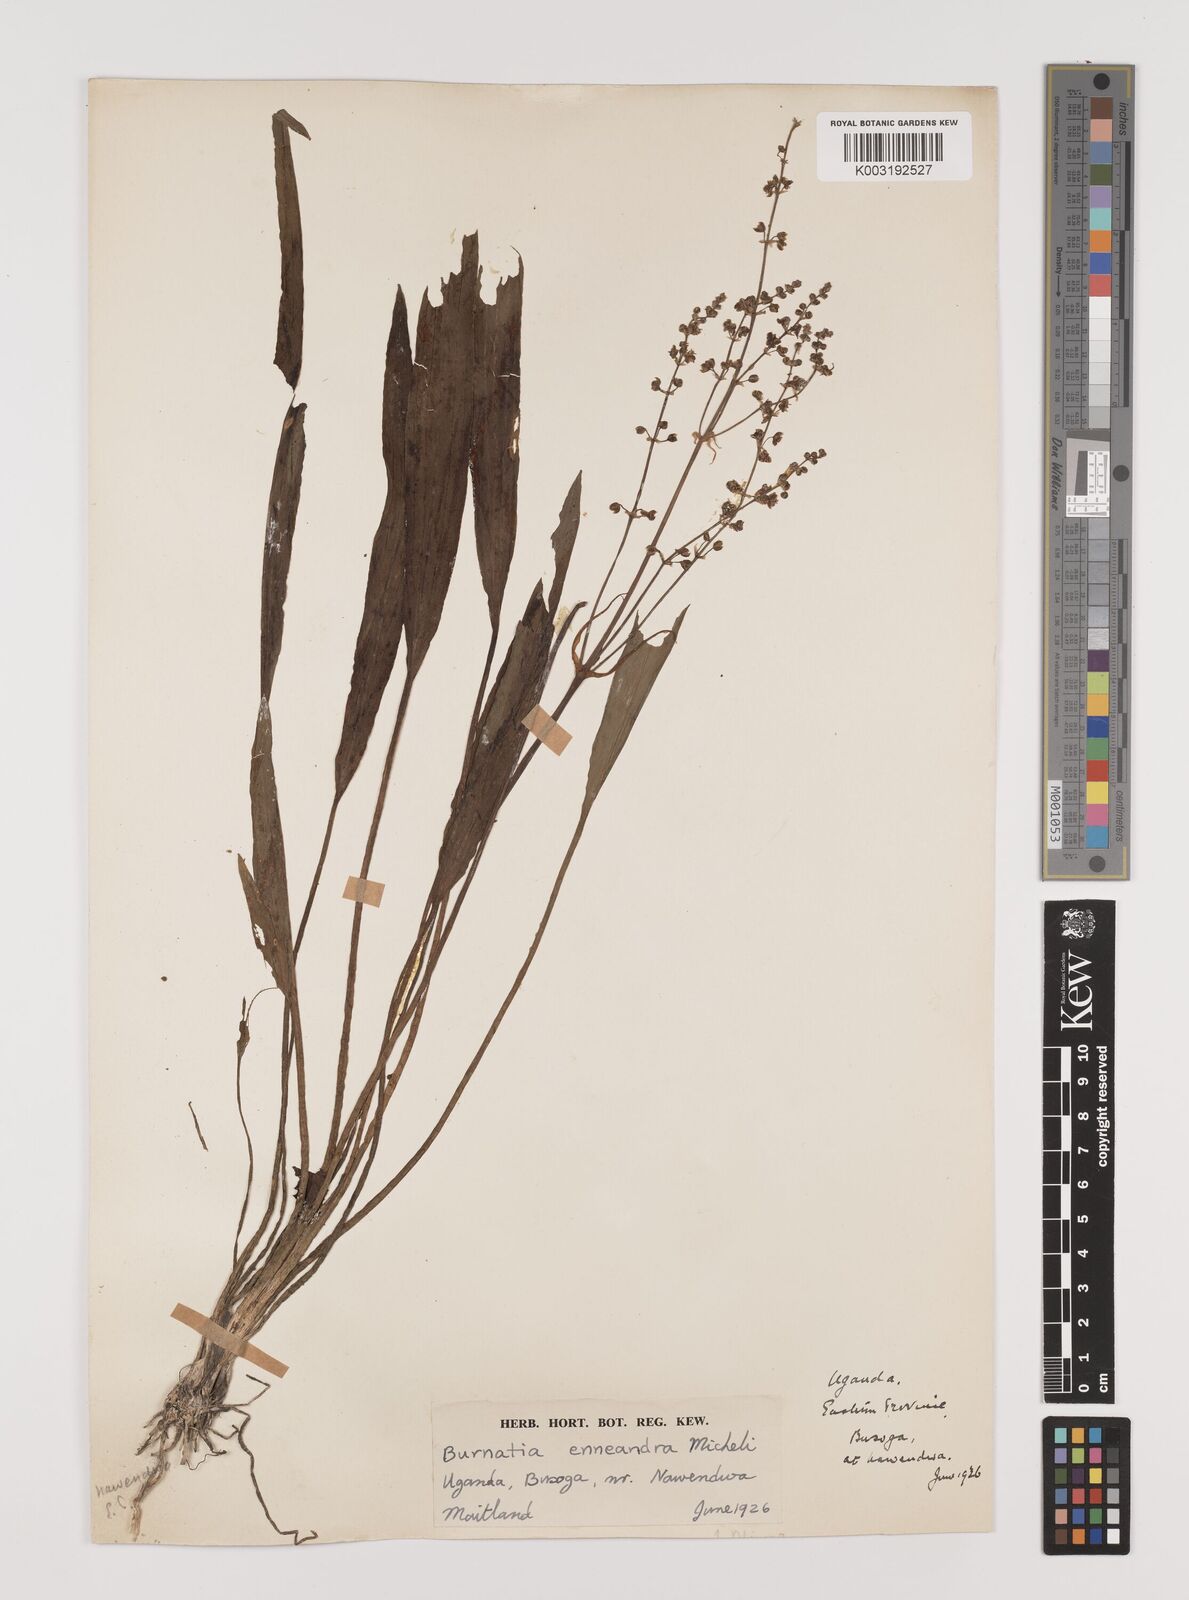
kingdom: Plantae
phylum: Tracheophyta
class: Liliopsida
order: Alismatales
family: Alismataceae
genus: Burnatia
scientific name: Burnatia enneandra
